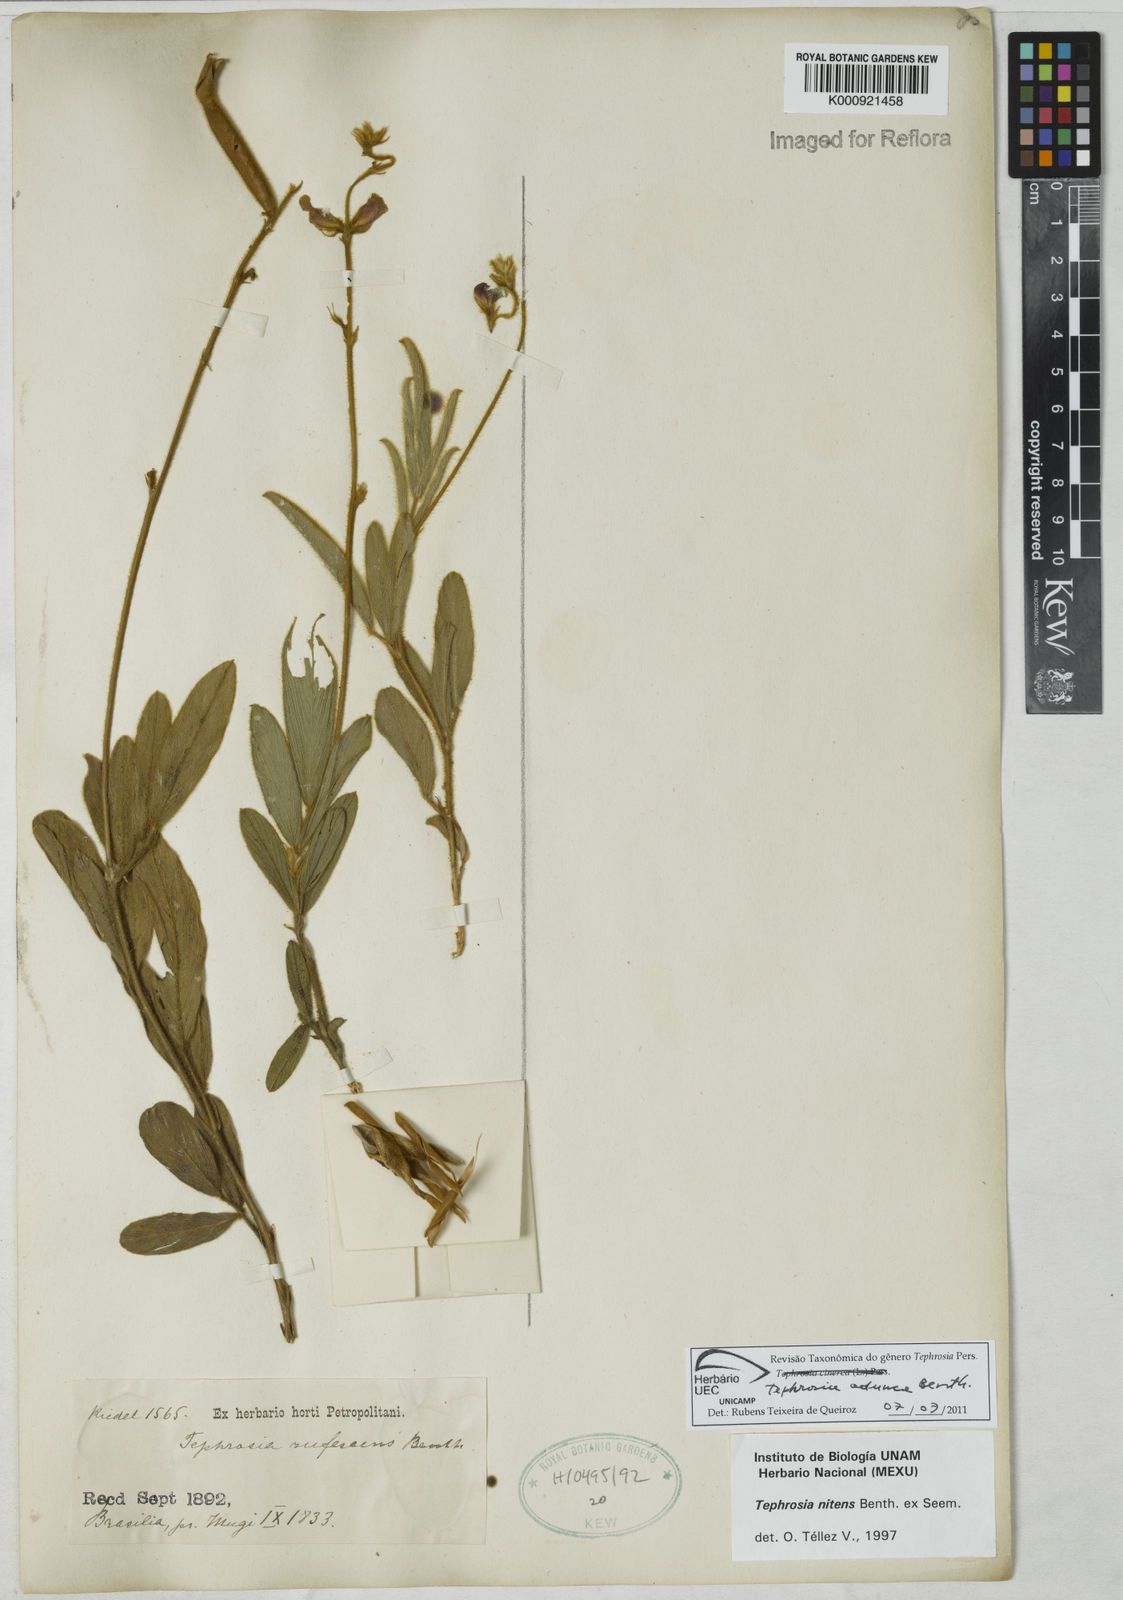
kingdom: Plantae
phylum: Tracheophyta
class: Magnoliopsida
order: Fabales
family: Fabaceae
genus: Tephrosia
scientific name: Tephrosia adunca
